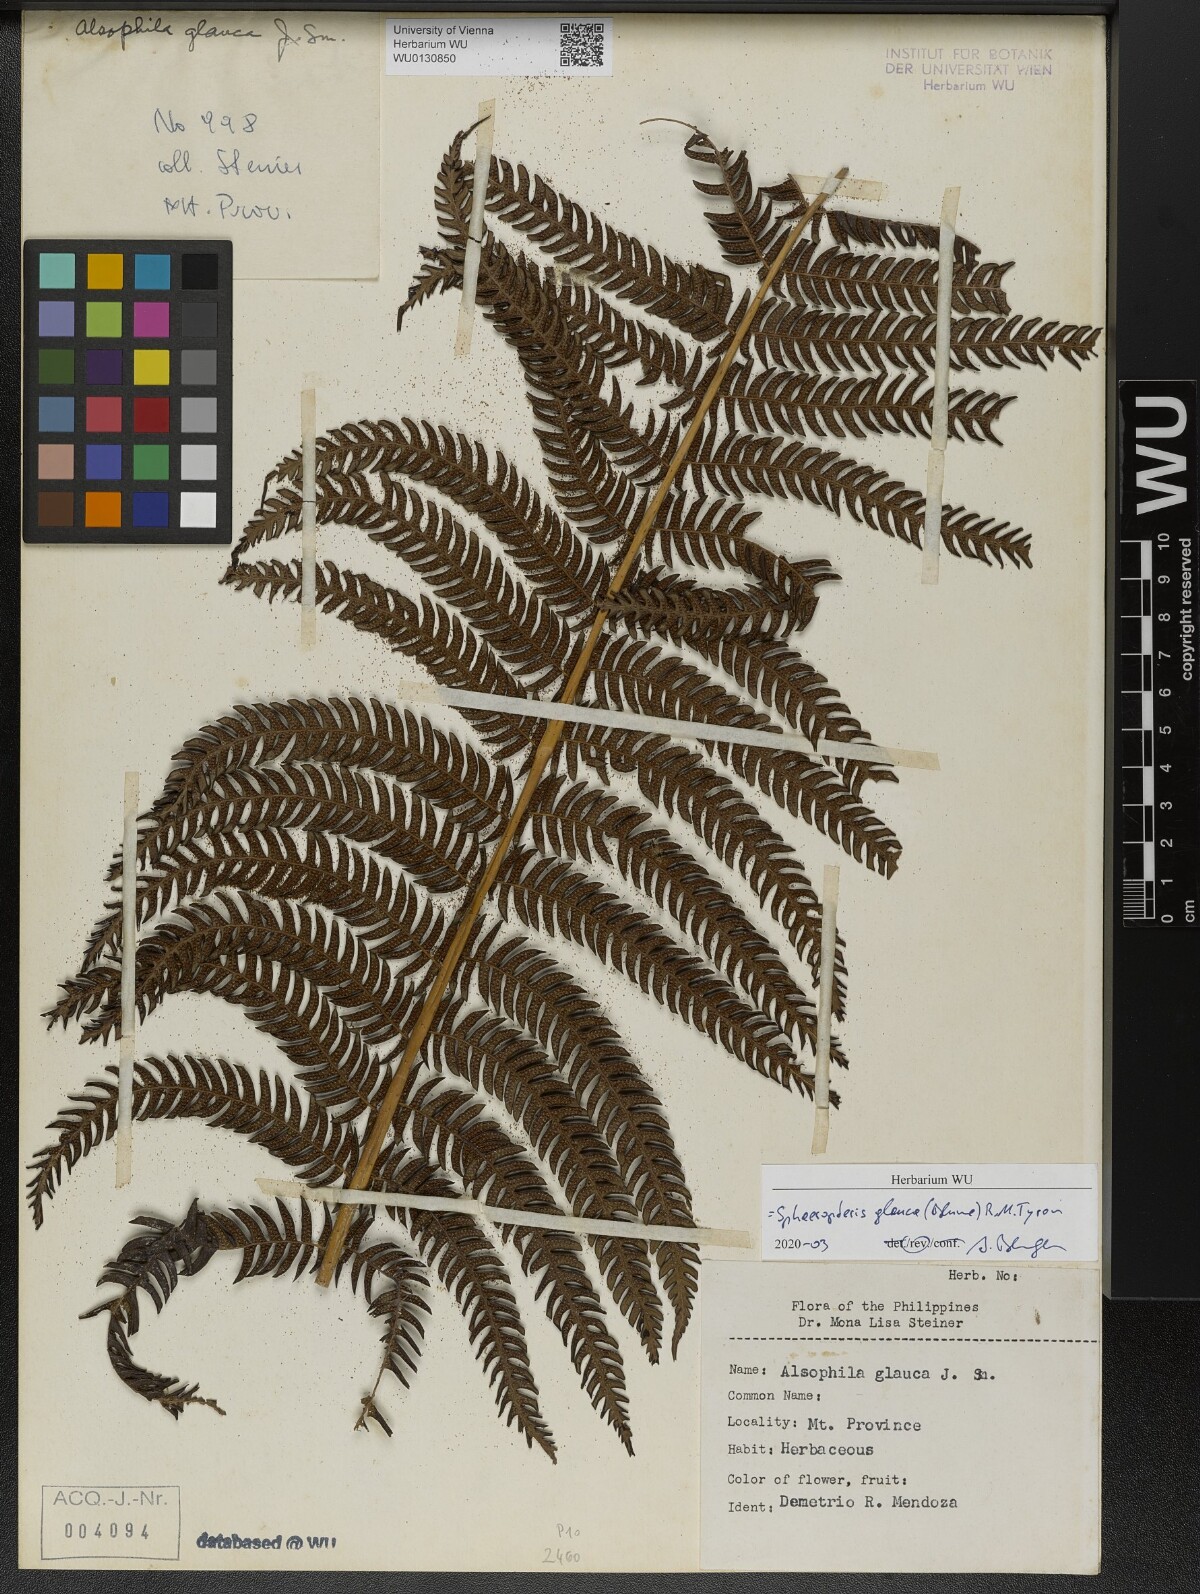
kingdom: Plantae
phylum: Tracheophyta
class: Polypodiopsida
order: Cyatheales
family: Cyatheaceae
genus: Sphaeropteris
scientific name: Sphaeropteris glauca
